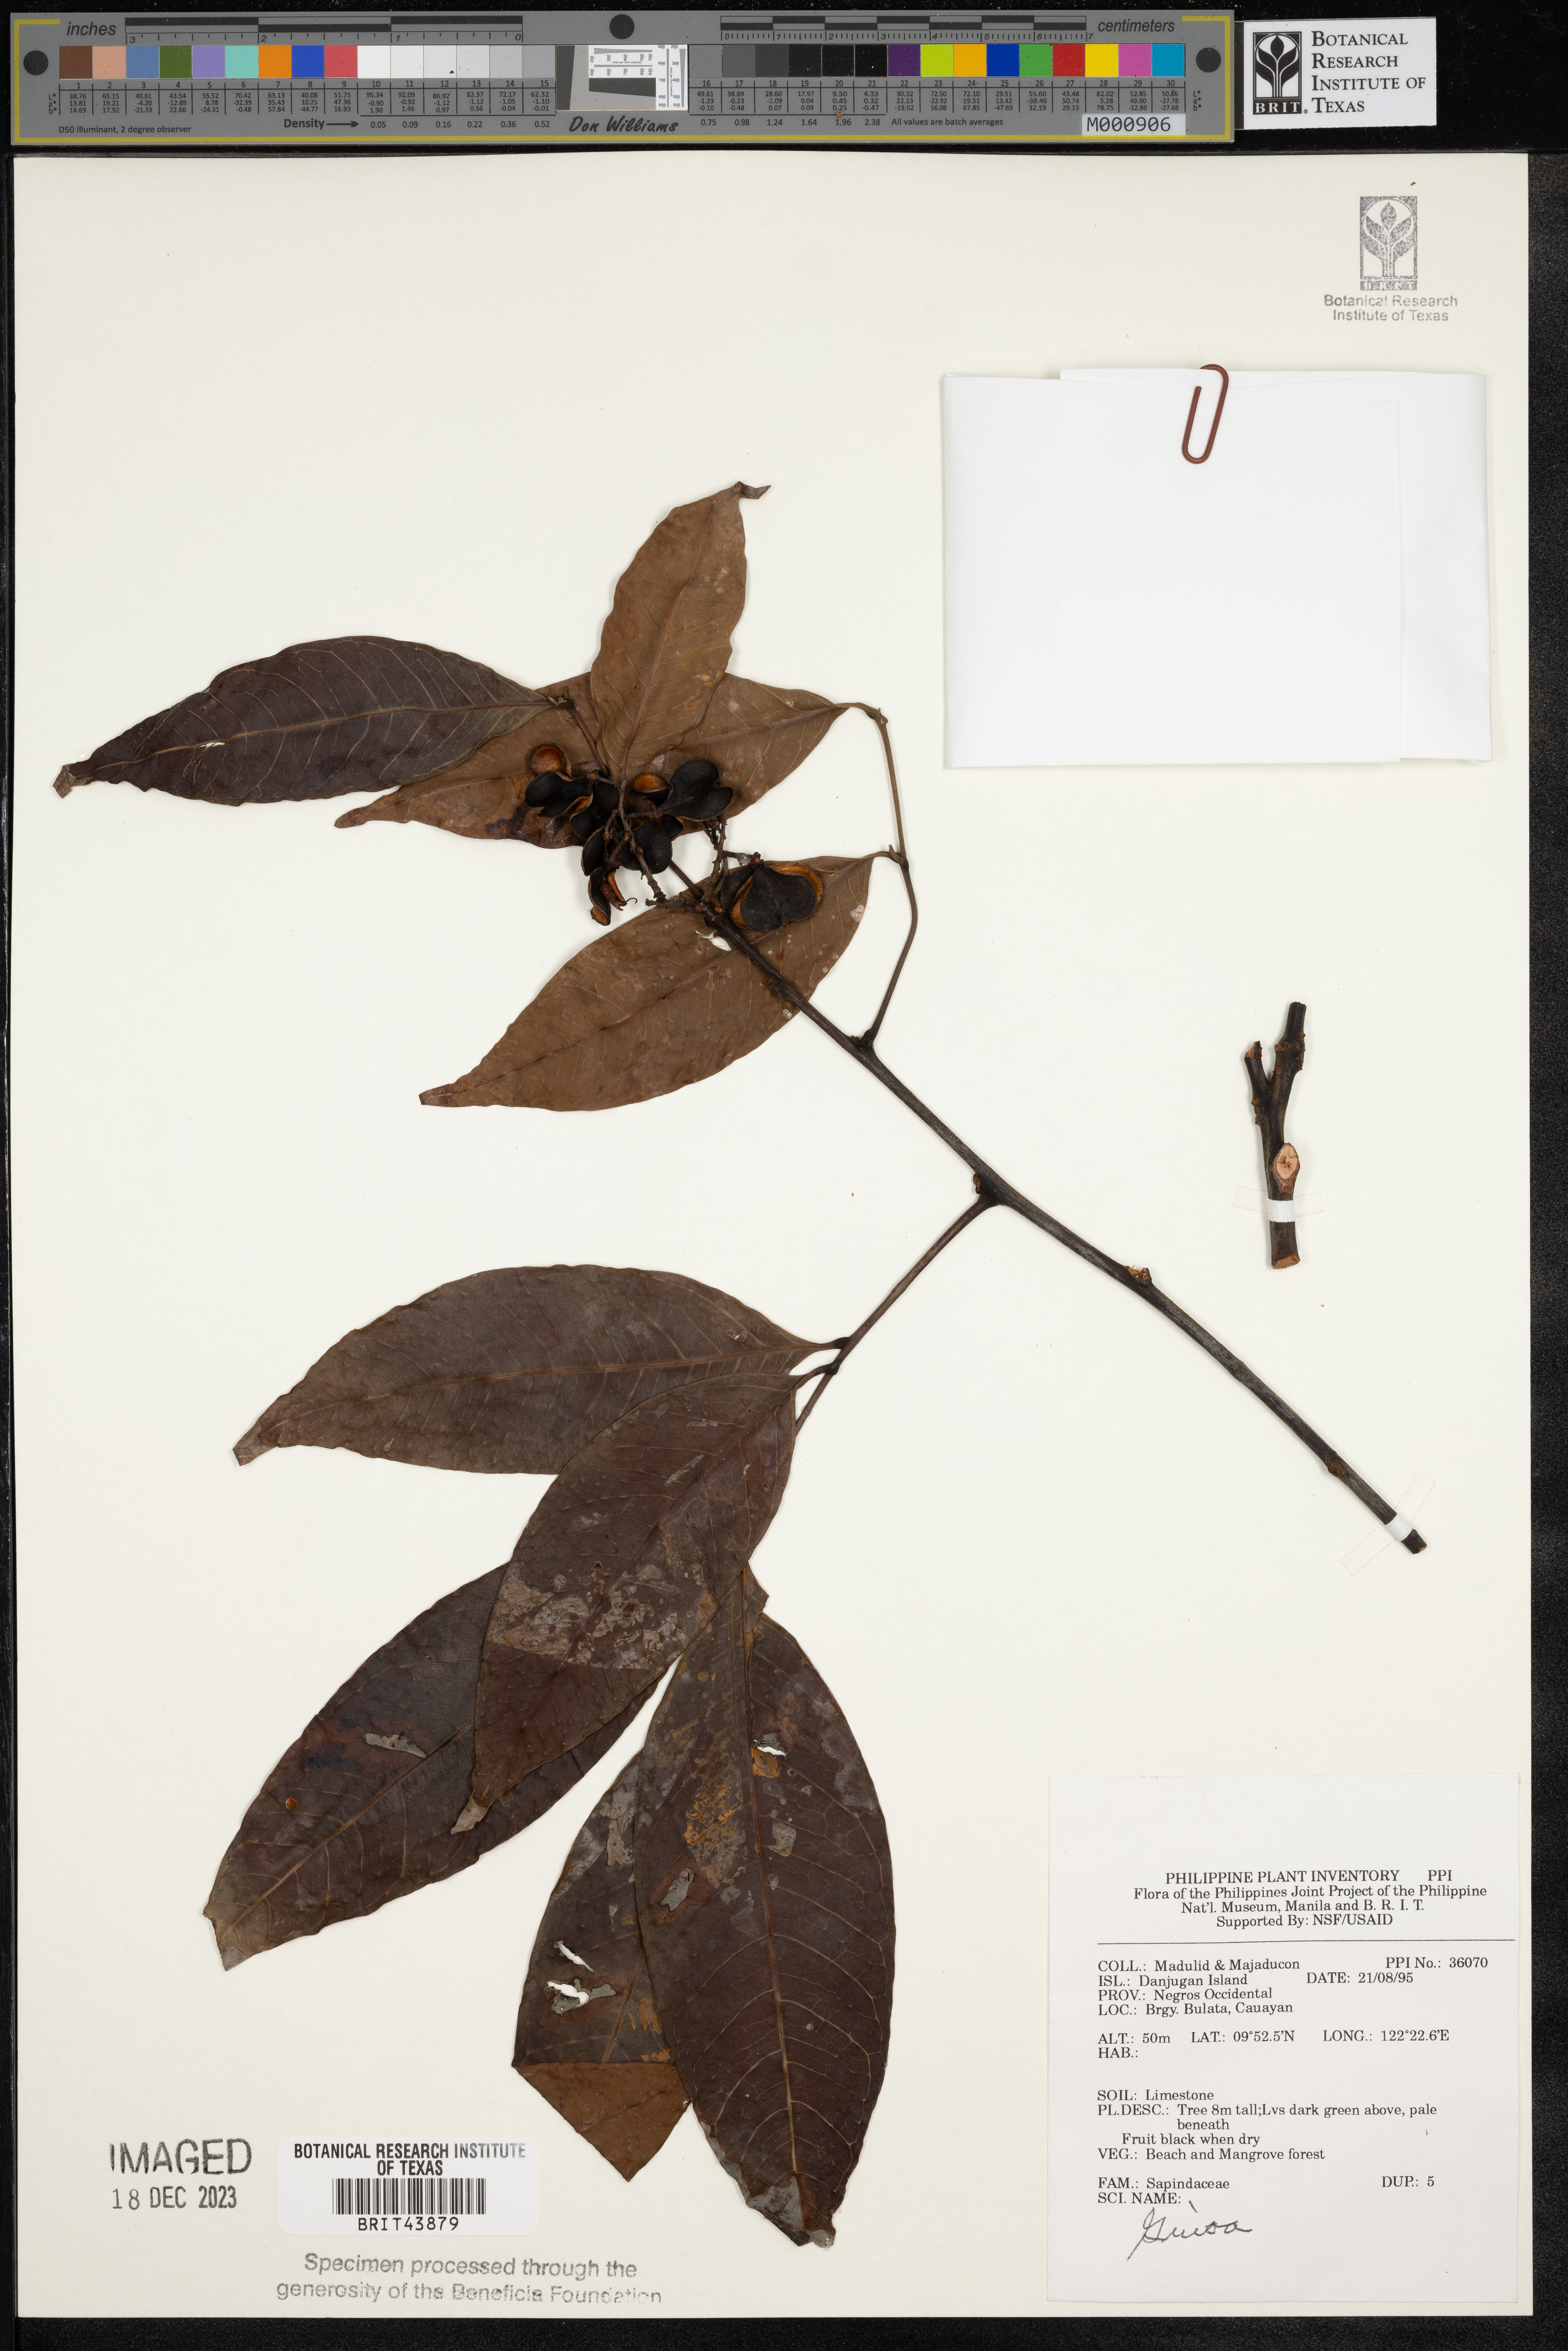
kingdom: Plantae
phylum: Tracheophyta
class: Magnoliopsida
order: Sapindales
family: Sapindaceae
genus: Guioa
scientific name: Guioa
